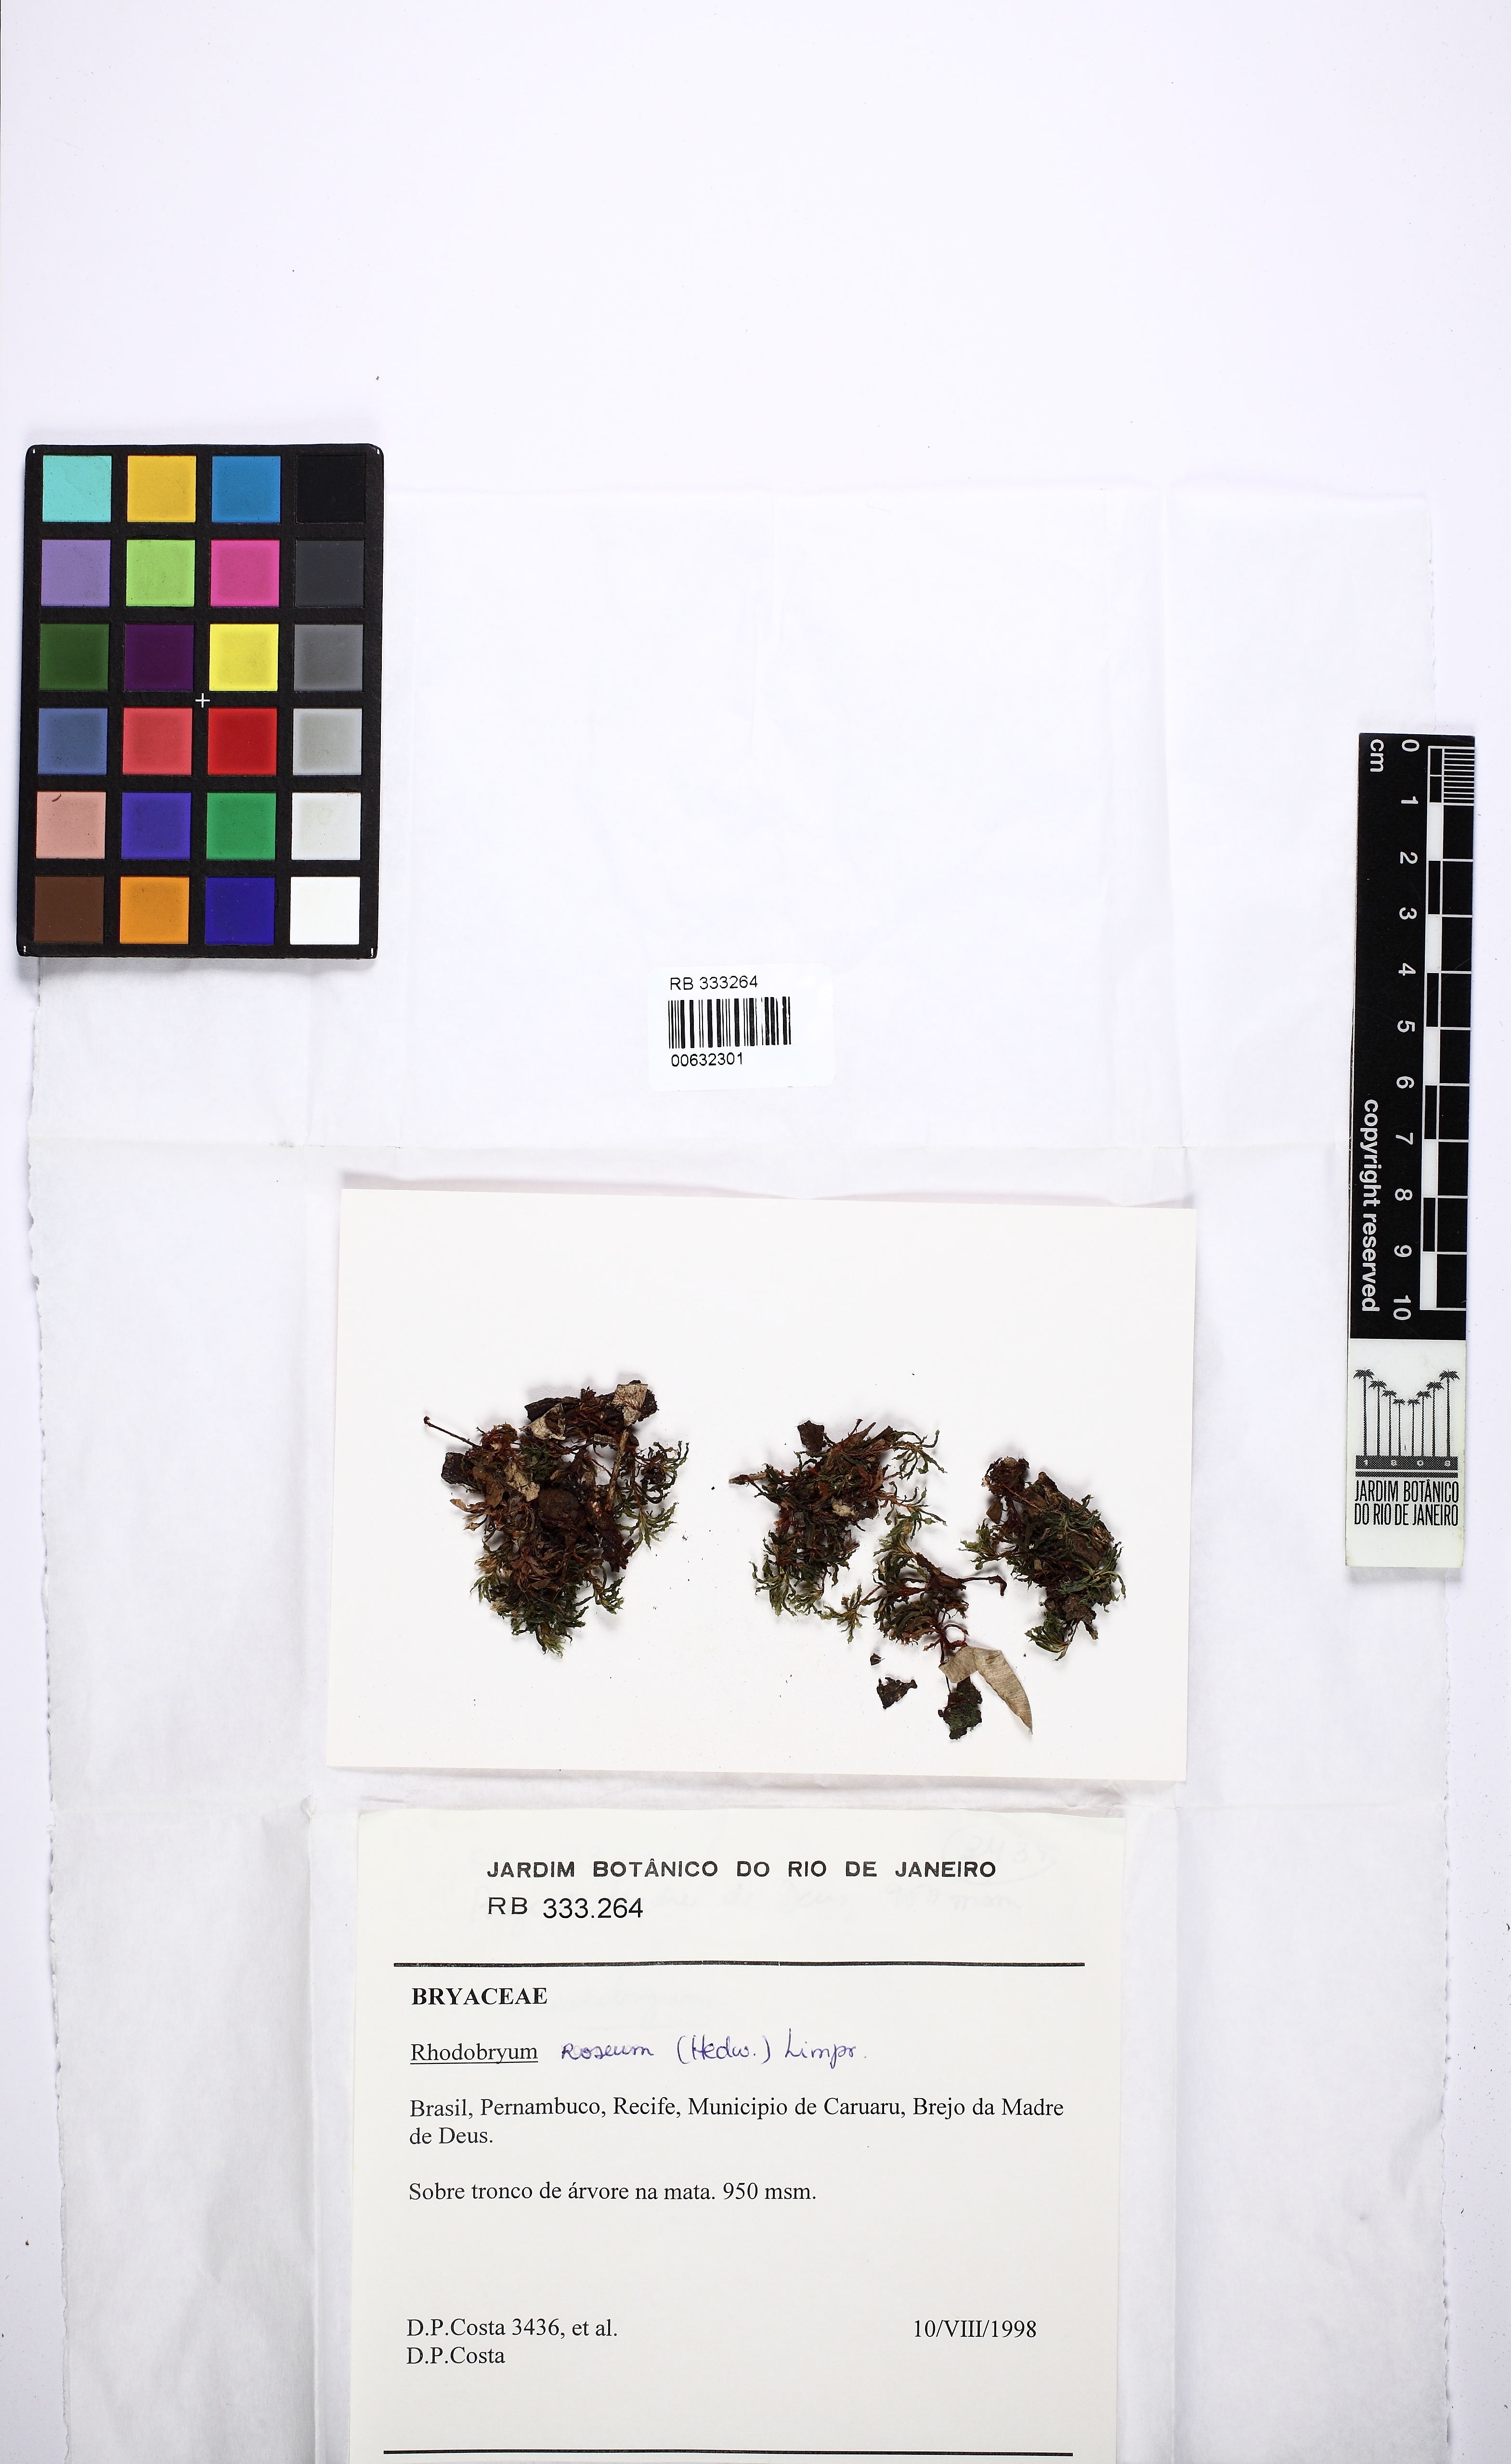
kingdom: Plantae
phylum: Bryophyta
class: Bryopsida
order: Bryales
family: Bryaceae
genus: Rhodobryum
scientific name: Rhodobryum roseum
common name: Rose-moss
